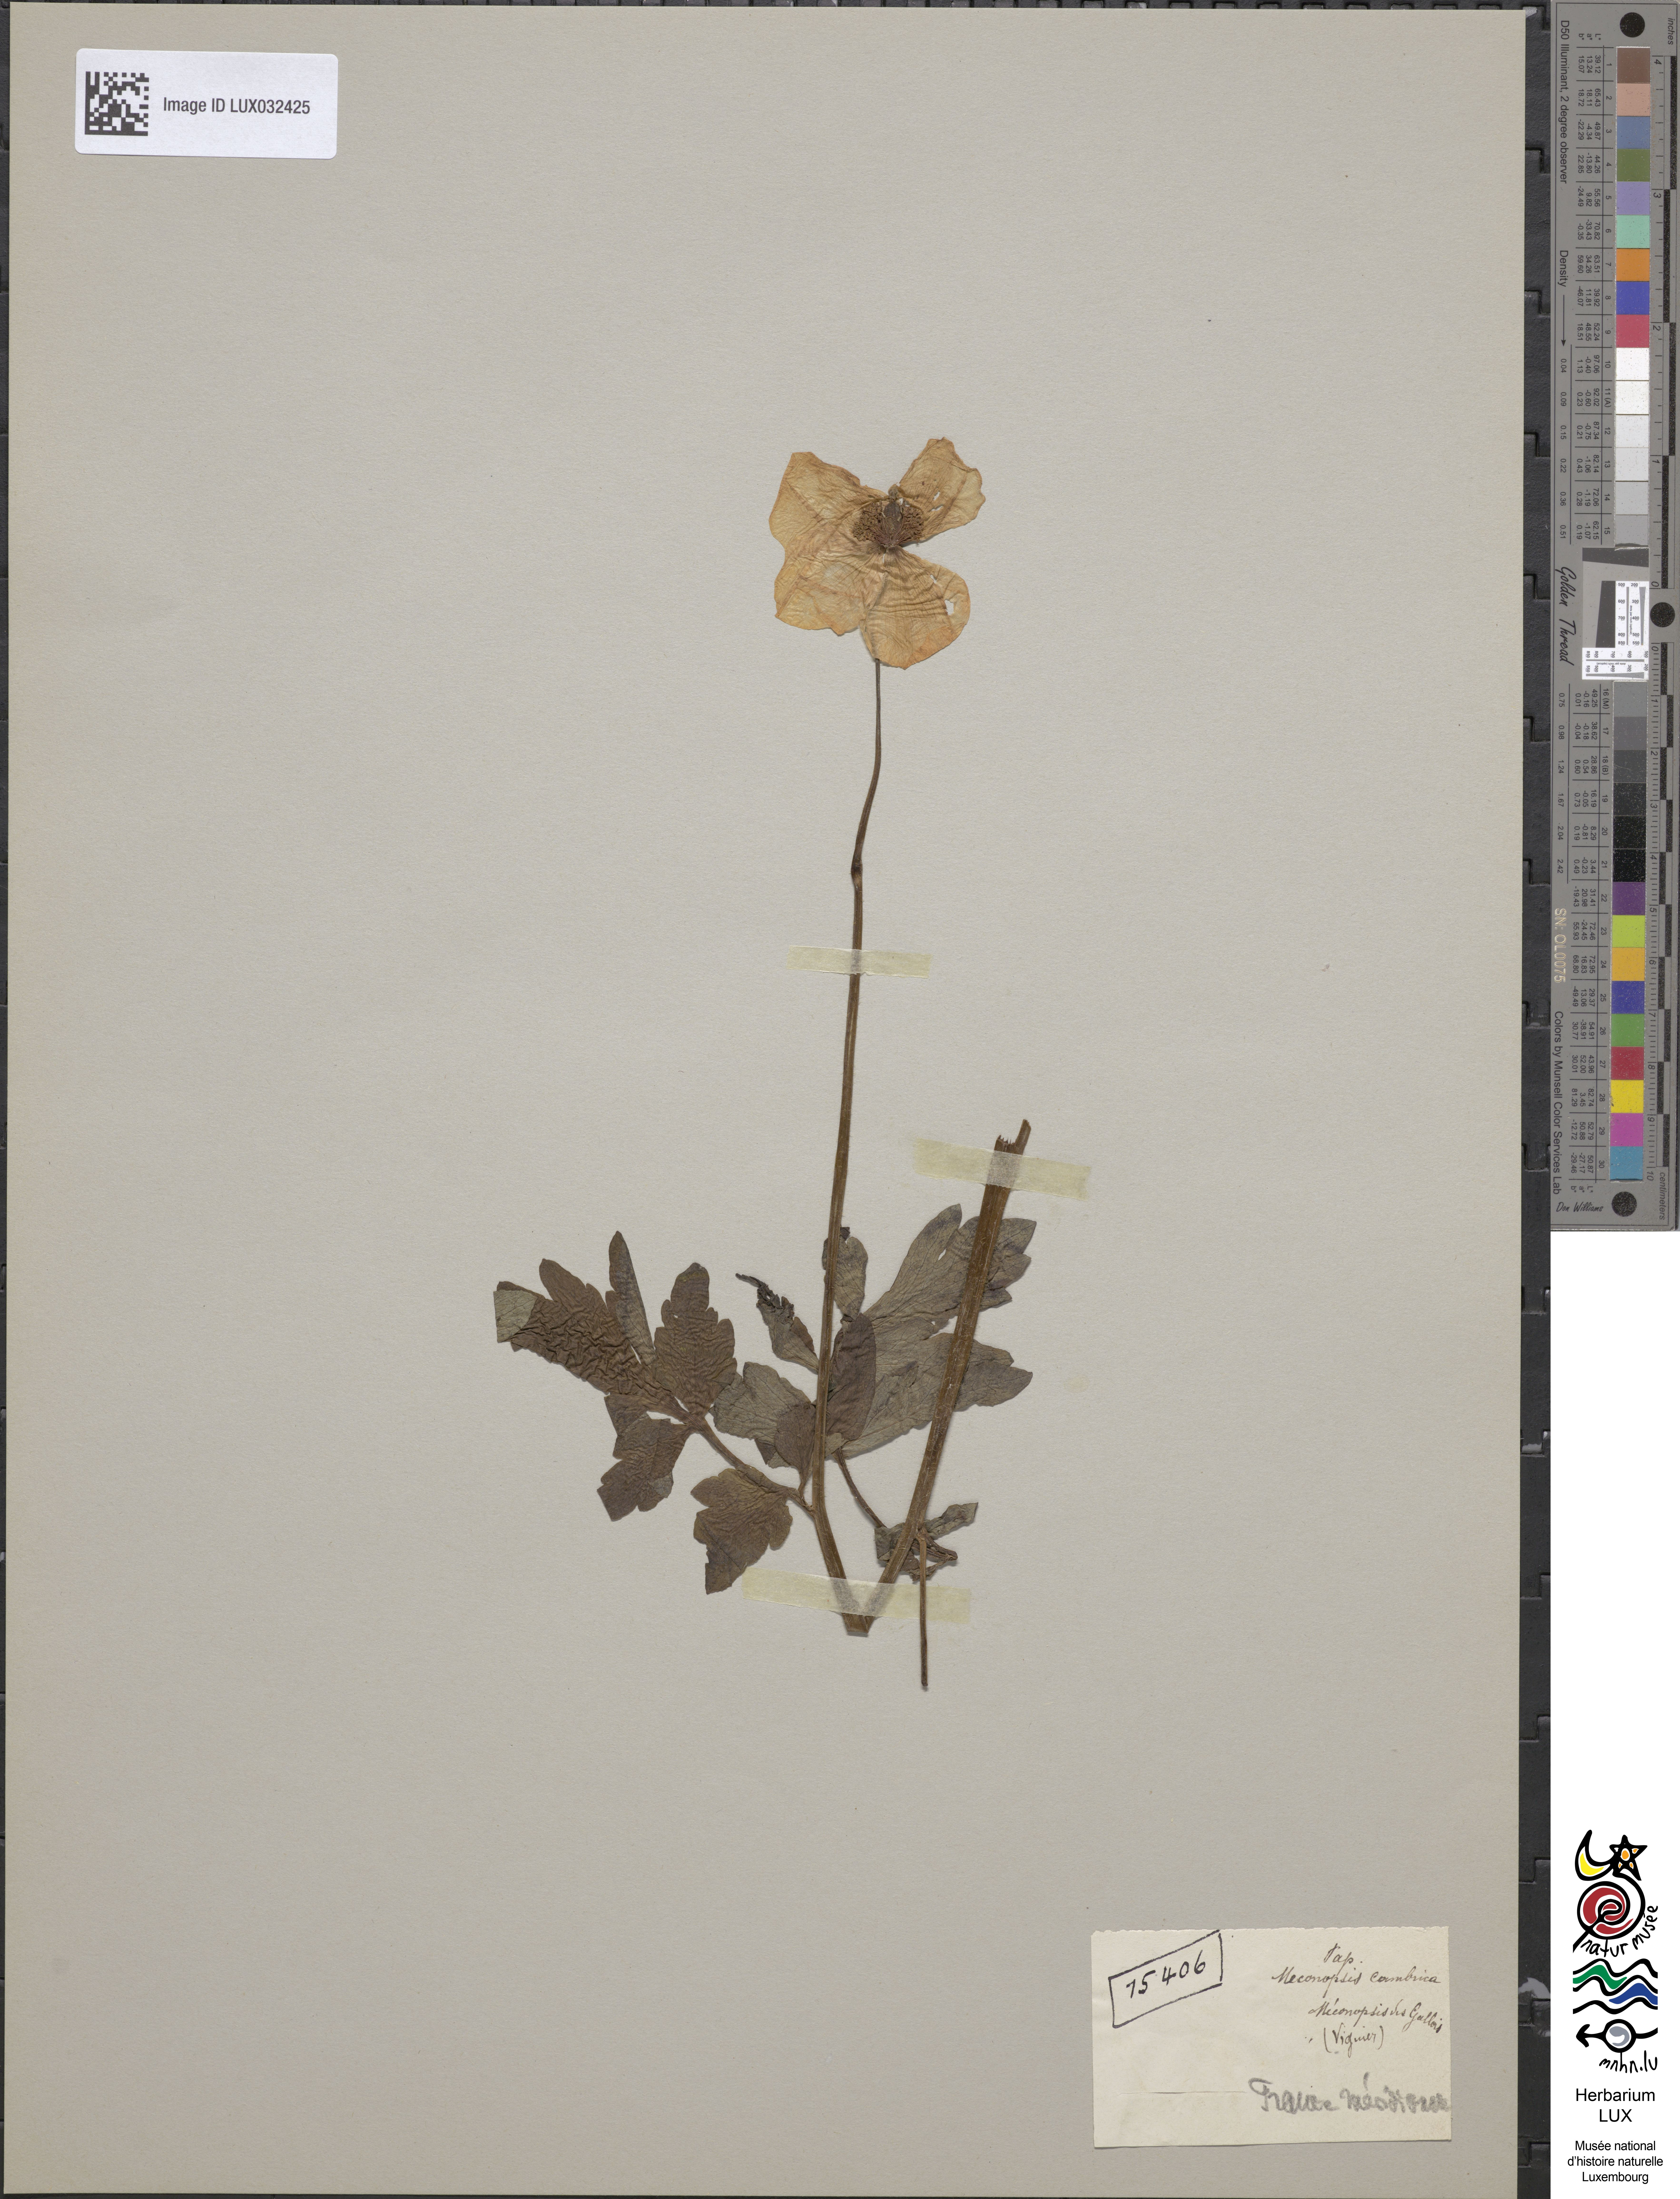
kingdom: Plantae
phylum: Tracheophyta
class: Magnoliopsida
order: Ranunculales
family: Papaveraceae
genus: Papaver
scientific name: Papaver cambricum
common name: Poppy
